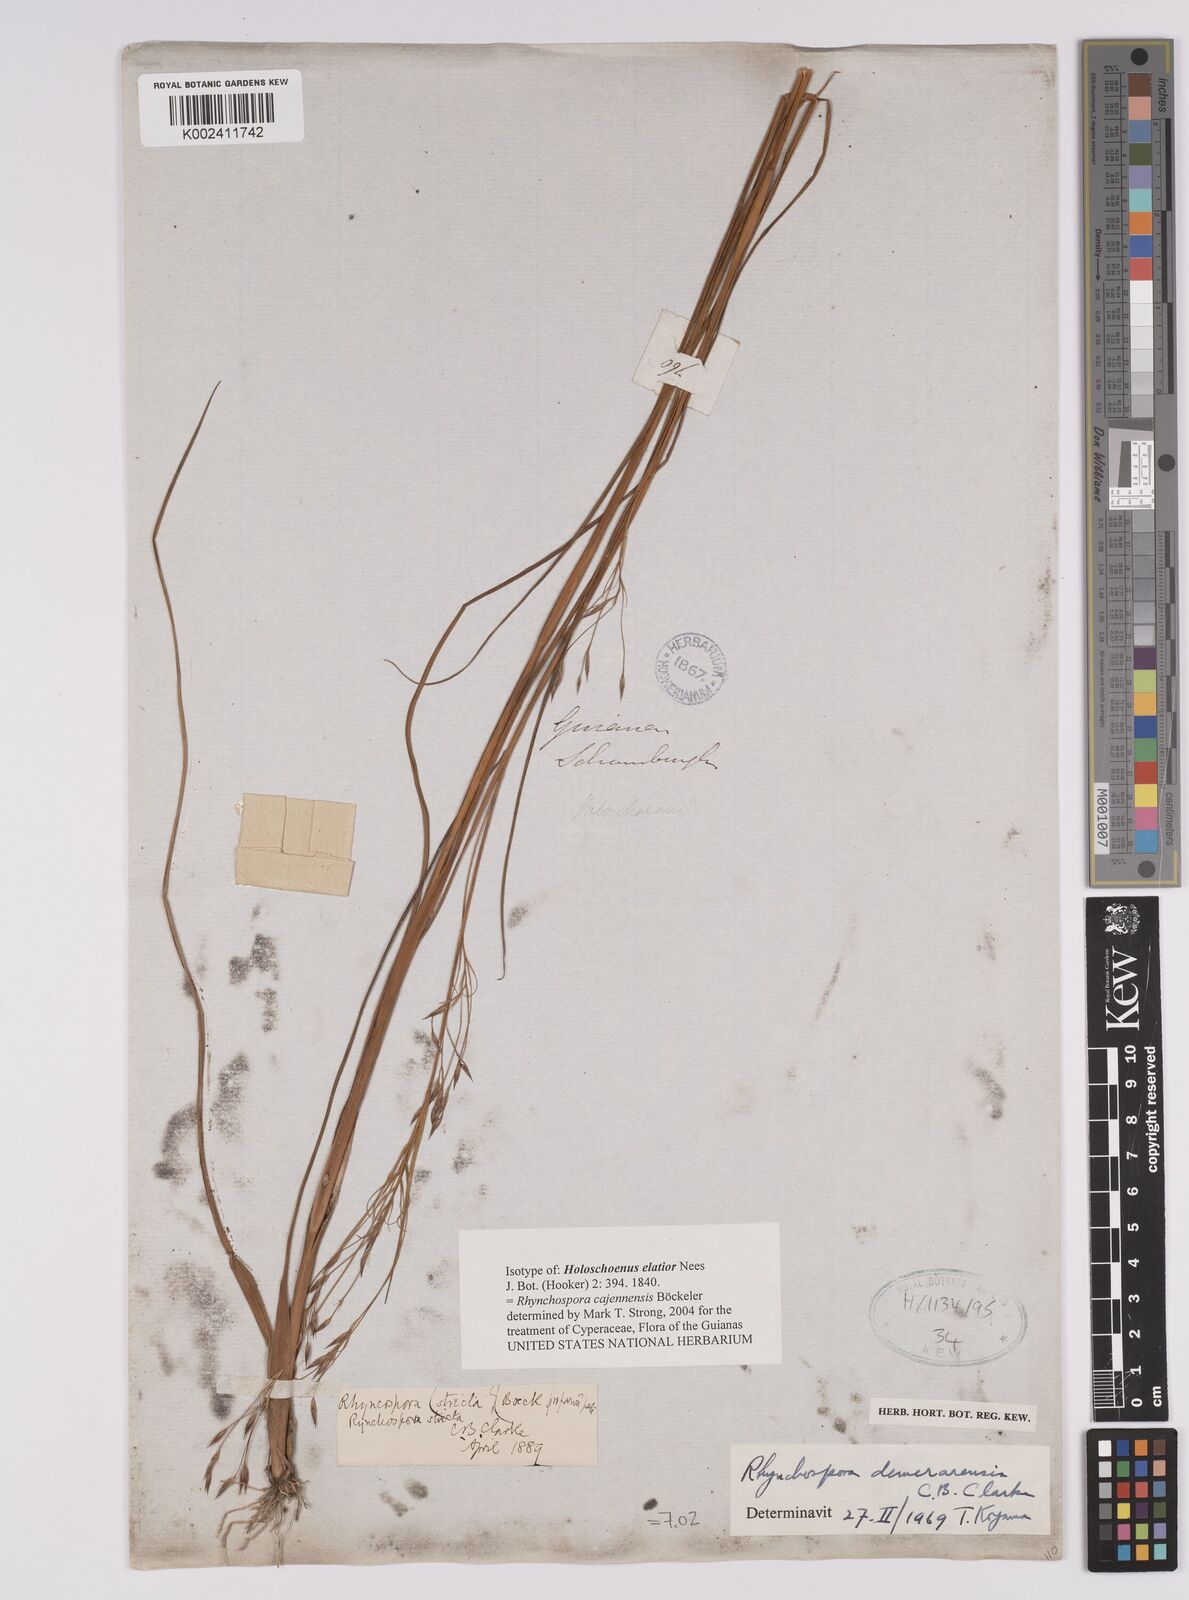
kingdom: Plantae
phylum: Tracheophyta
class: Liliopsida
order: Poales
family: Cyperaceae
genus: Rhynchospora
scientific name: Rhynchospora cajennensis
